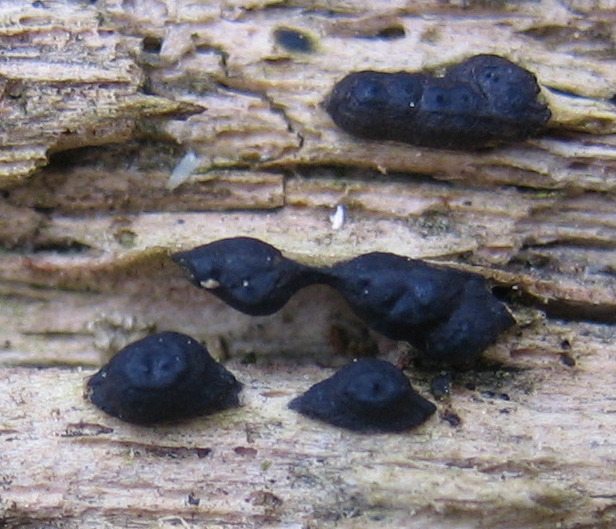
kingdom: Fungi
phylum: Ascomycota
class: Sordariomycetes
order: Xylariales
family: Xylariaceae
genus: Nemania
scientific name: Nemania confluens
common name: indsænket kuldyne
